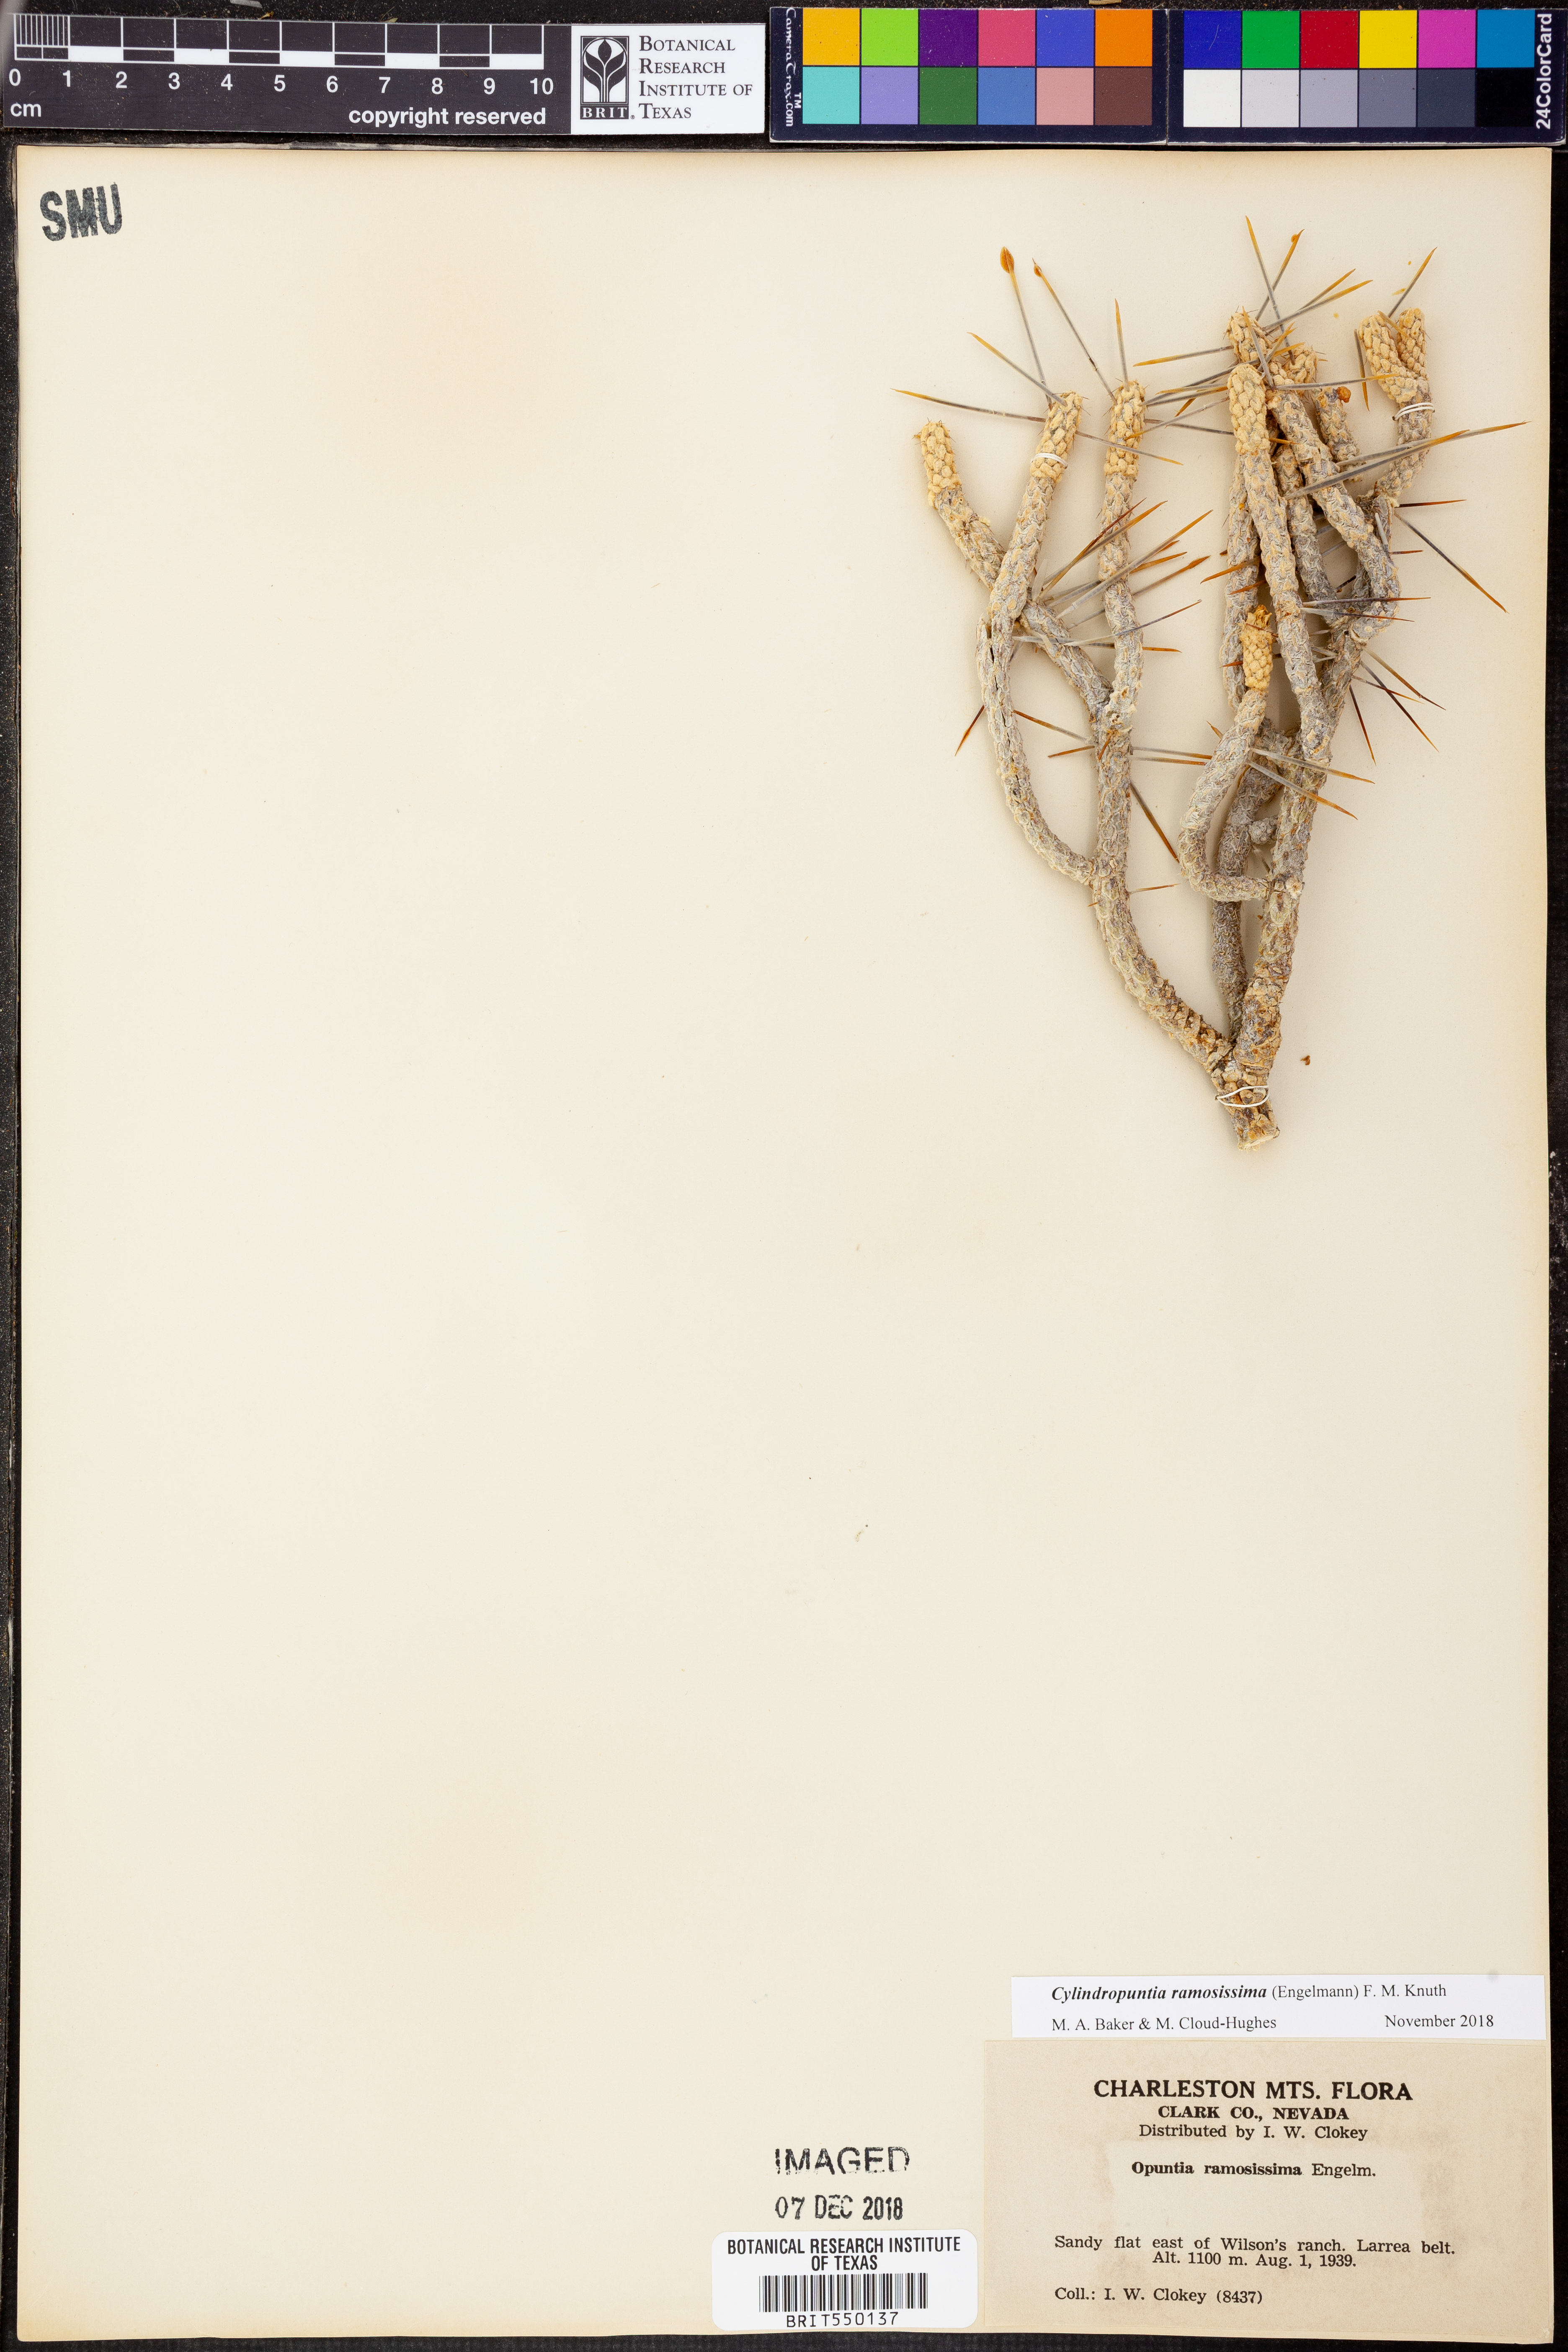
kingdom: Plantae
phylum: Tracheophyta
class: Magnoliopsida
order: Caryophyllales
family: Cactaceae
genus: Cylindropuntia
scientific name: Cylindropuntia ramosissima
